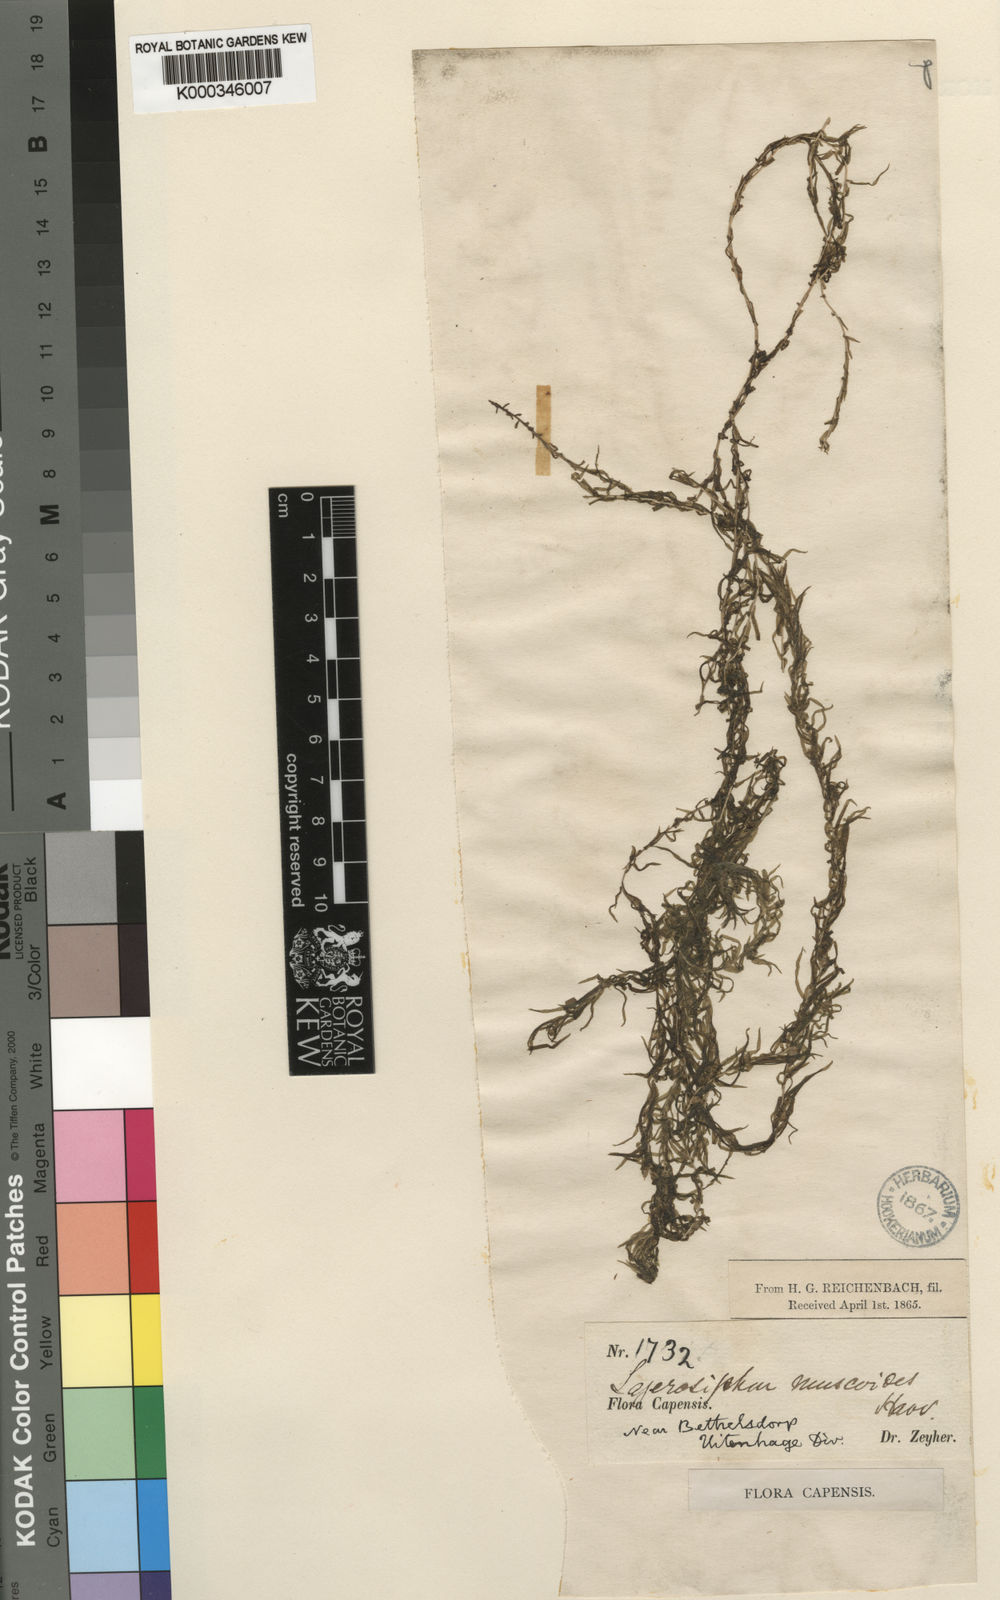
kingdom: Plantae
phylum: Tracheophyta
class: Liliopsida
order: Alismatales
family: Hydrocharitaceae
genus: Lagarosiphon
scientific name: Lagarosiphon muscoides
